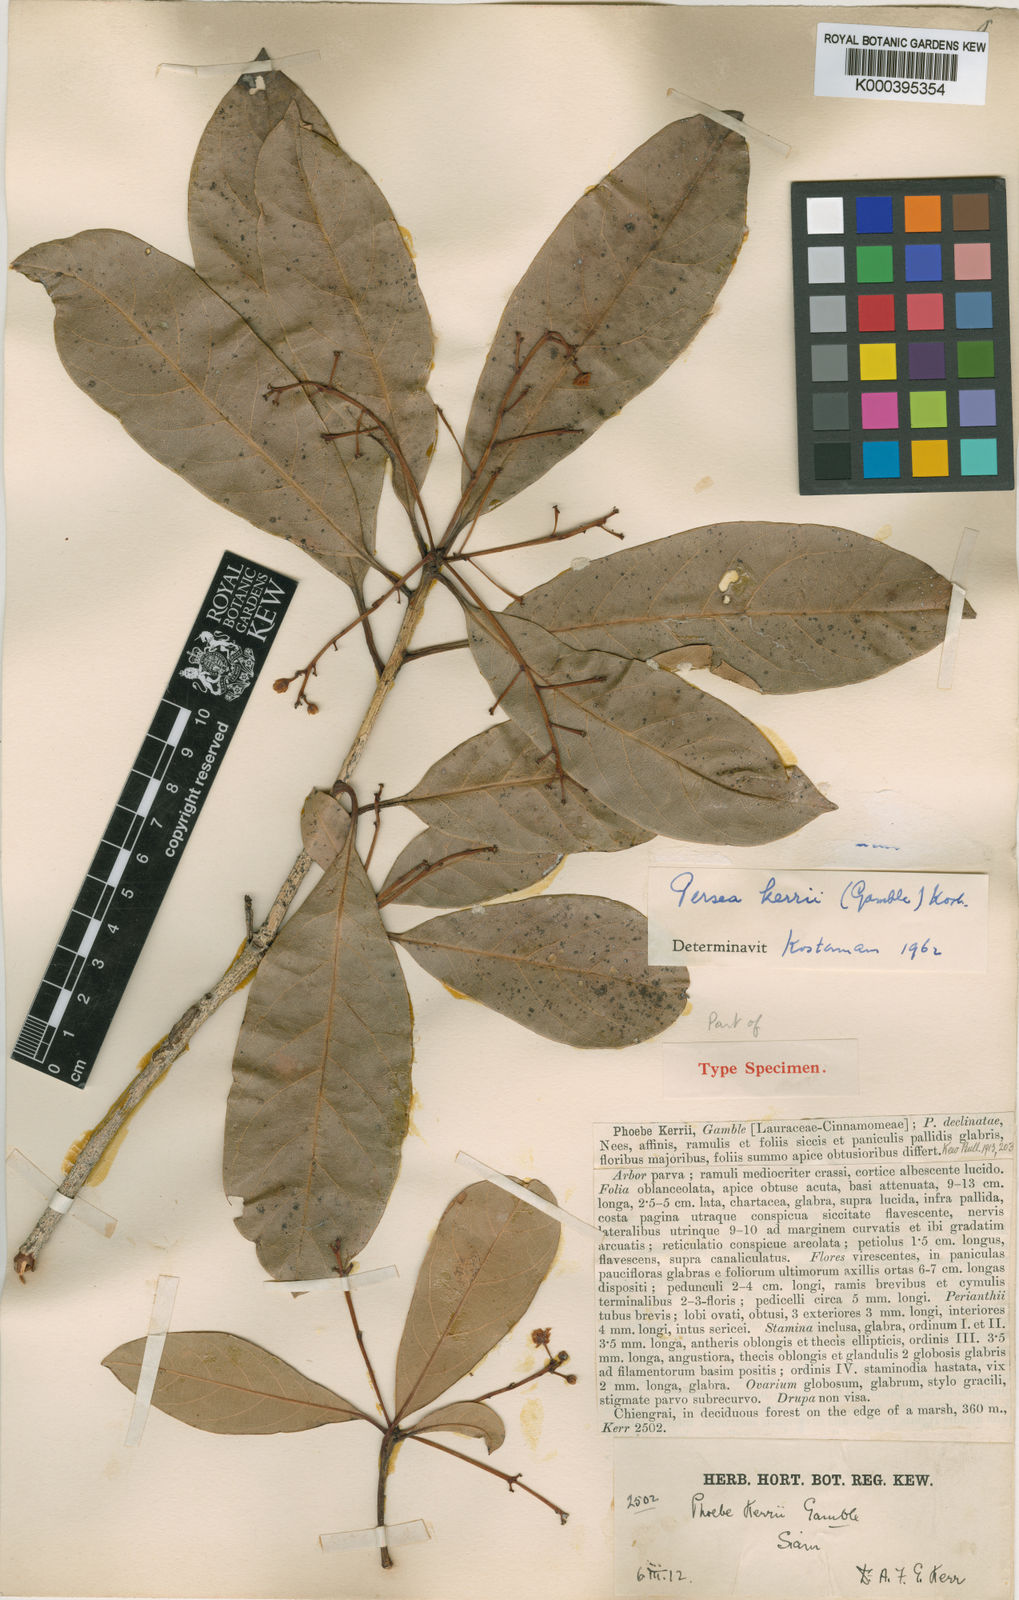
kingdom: Plantae
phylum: Tracheophyta
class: Magnoliopsida
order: Laurales
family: Lauraceae
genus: Persea
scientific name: Persea
